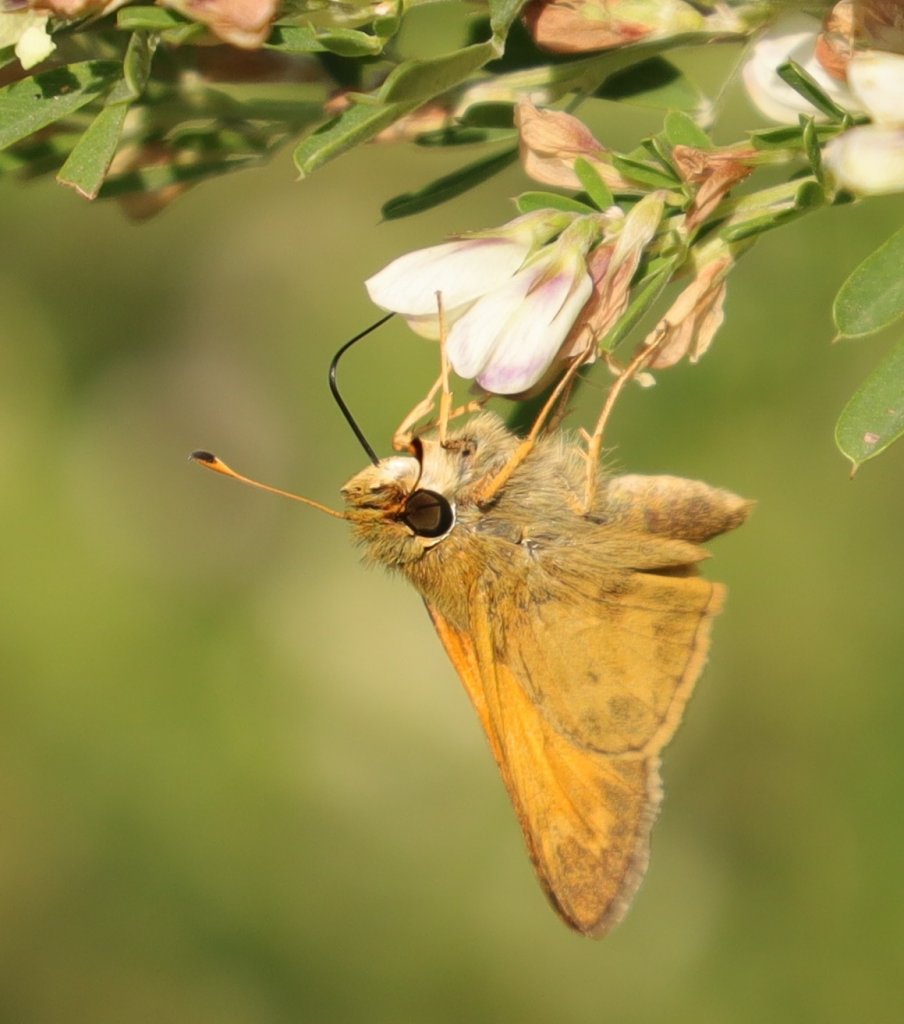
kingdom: Animalia
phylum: Arthropoda
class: Insecta
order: Lepidoptera
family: Hesperiidae
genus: Atalopedes
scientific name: Atalopedes campestris
